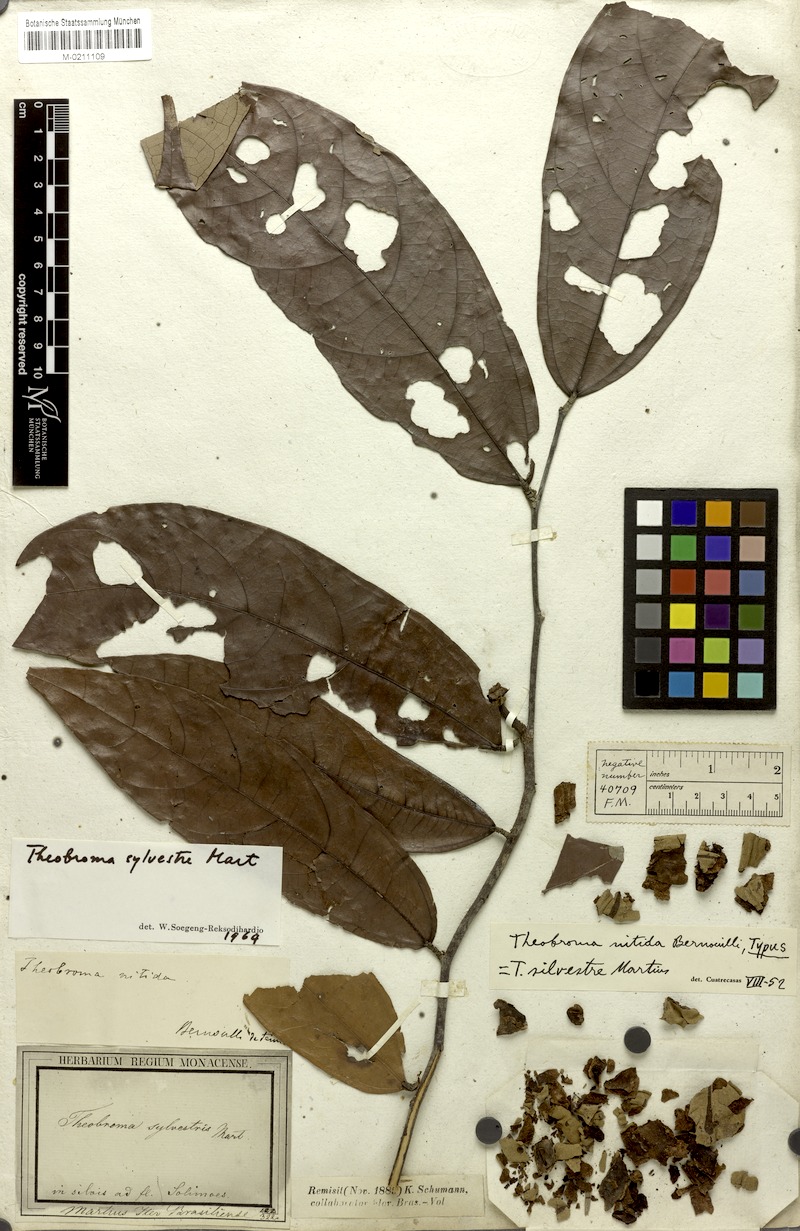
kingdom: Plantae
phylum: Tracheophyta
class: Magnoliopsida
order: Malvales
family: Malvaceae
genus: Theobroma
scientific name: Theobroma sylvestre
